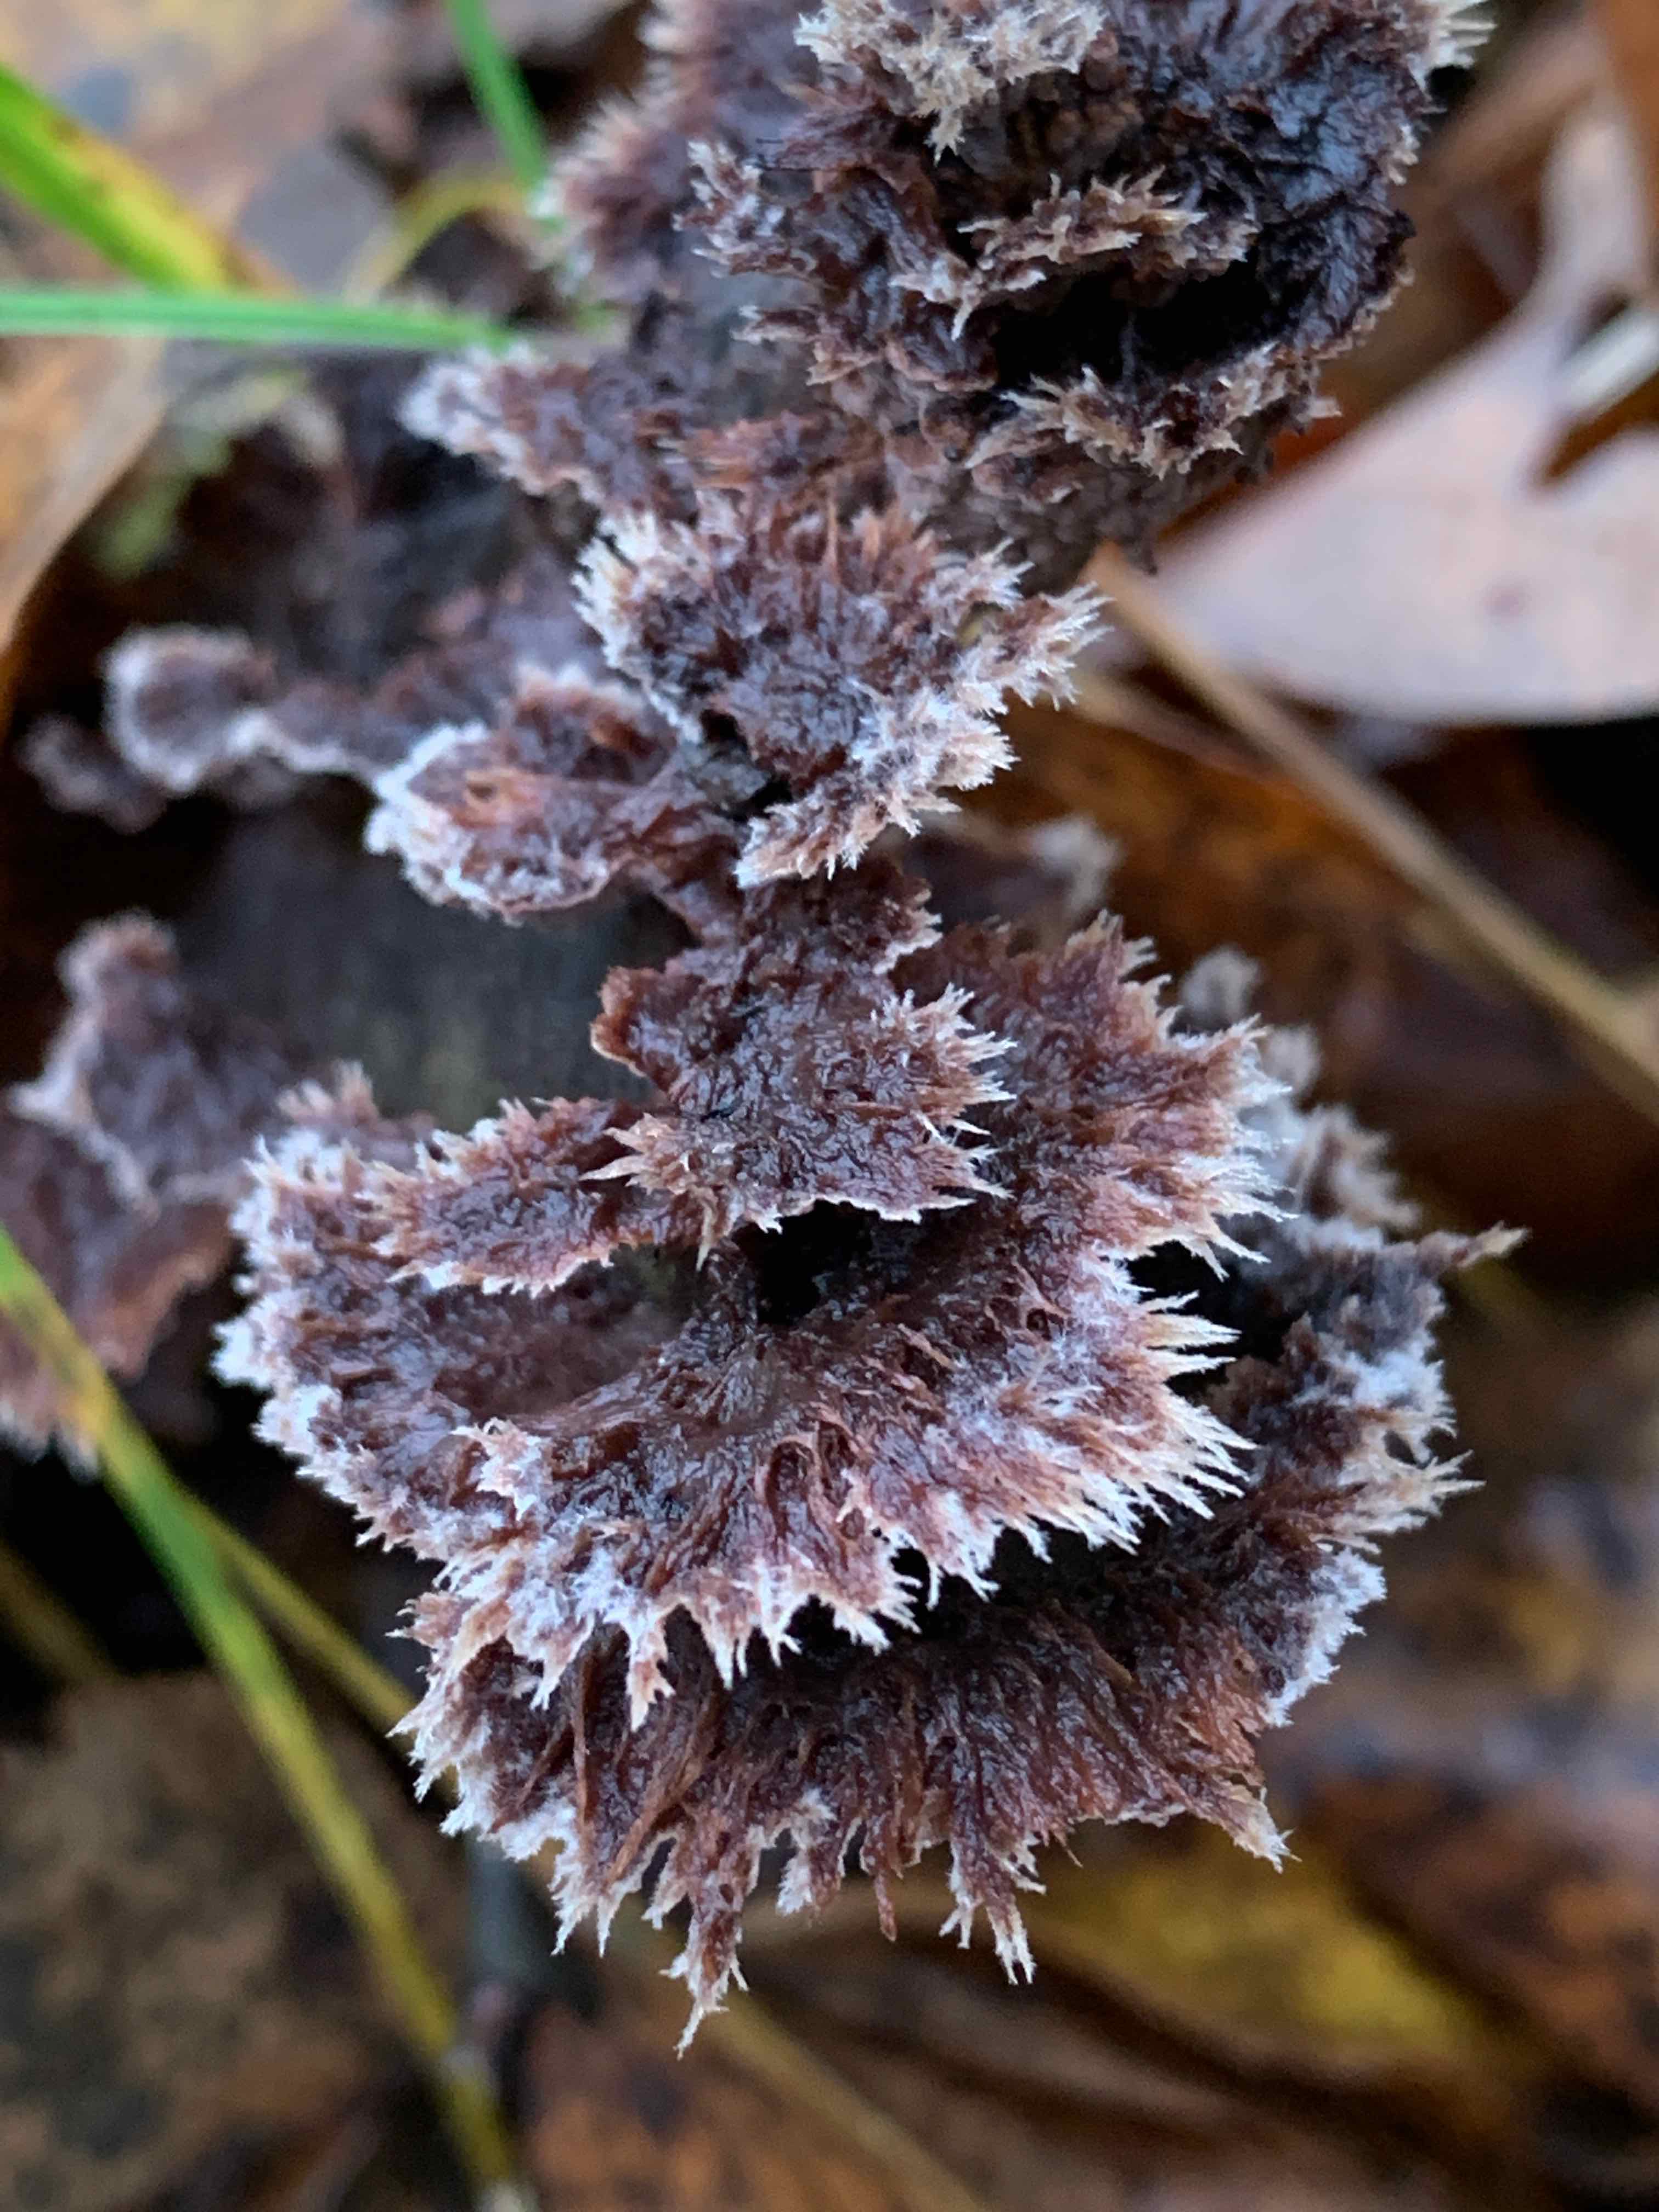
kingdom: Fungi
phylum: Basidiomycota
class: Agaricomycetes
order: Thelephorales
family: Thelephoraceae
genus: Thelephora
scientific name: Thelephora terrestris
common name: fliget frynsesvamp
